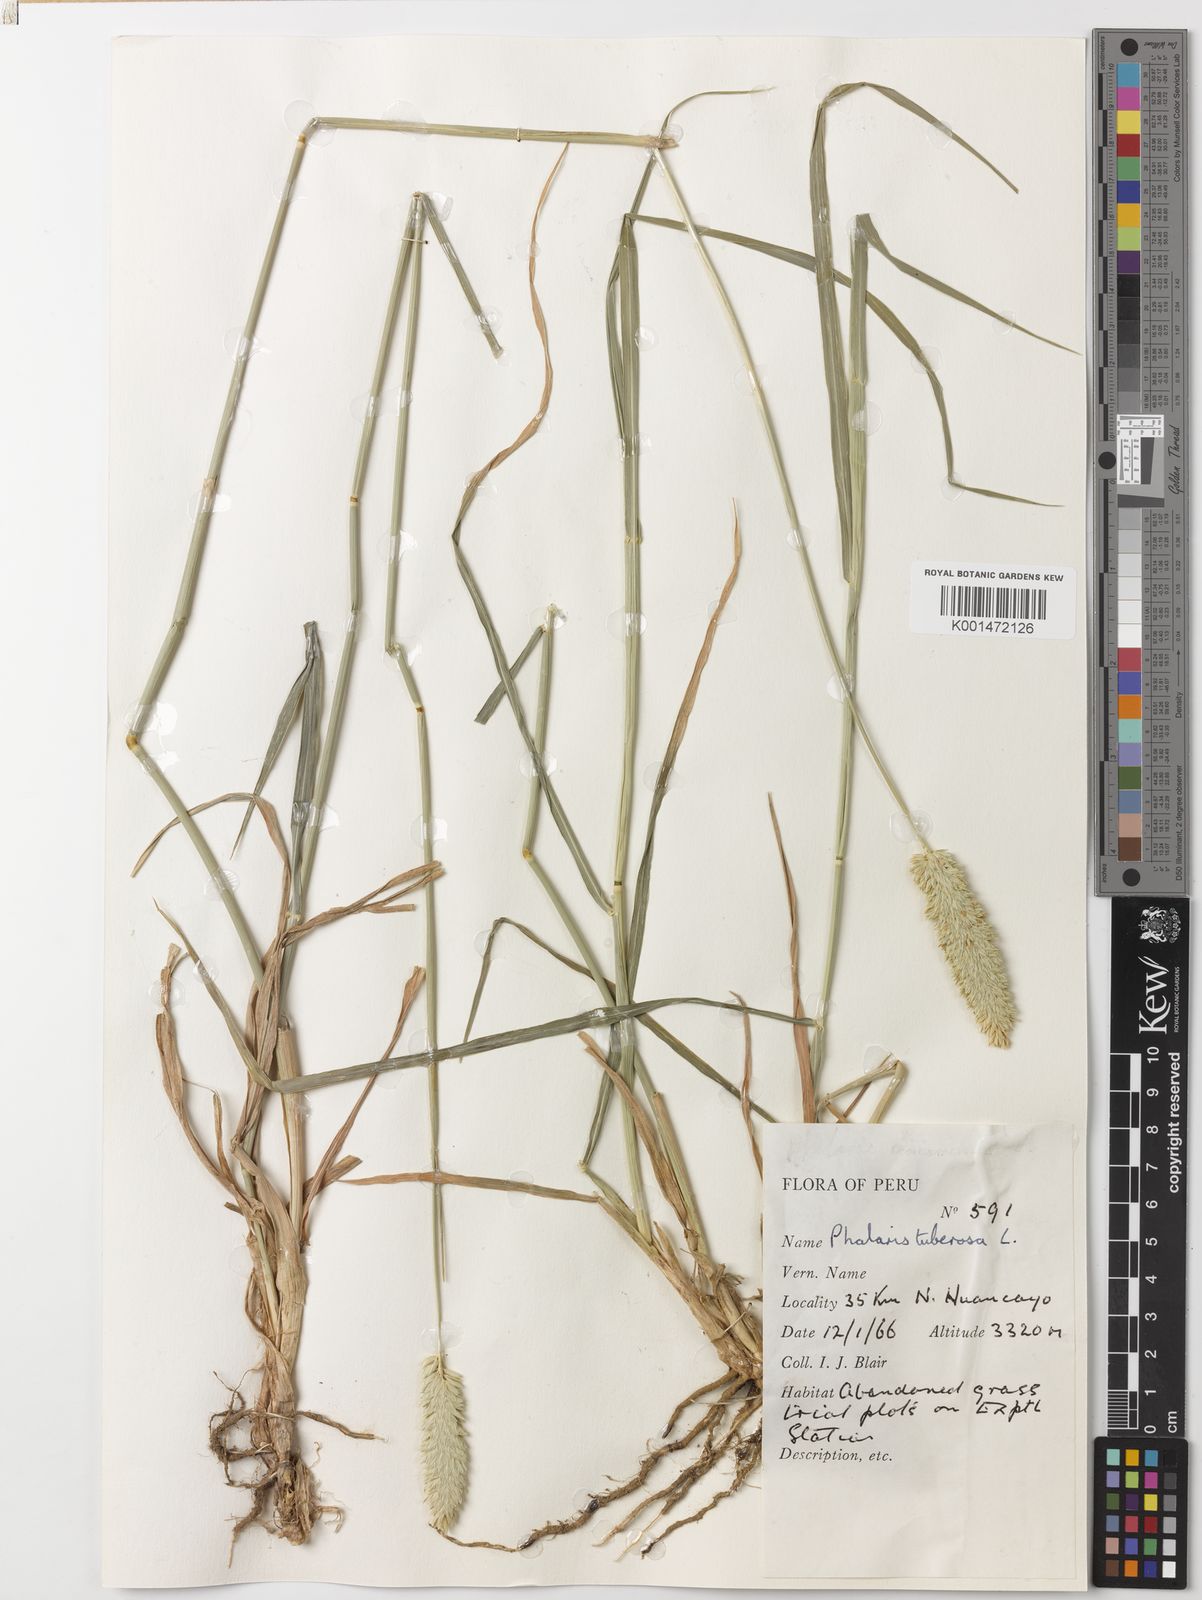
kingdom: Plantae
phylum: Tracheophyta
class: Liliopsida
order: Poales
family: Poaceae
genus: Phalaris
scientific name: Phalaris aquatica
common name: Bulbous canary-grass
